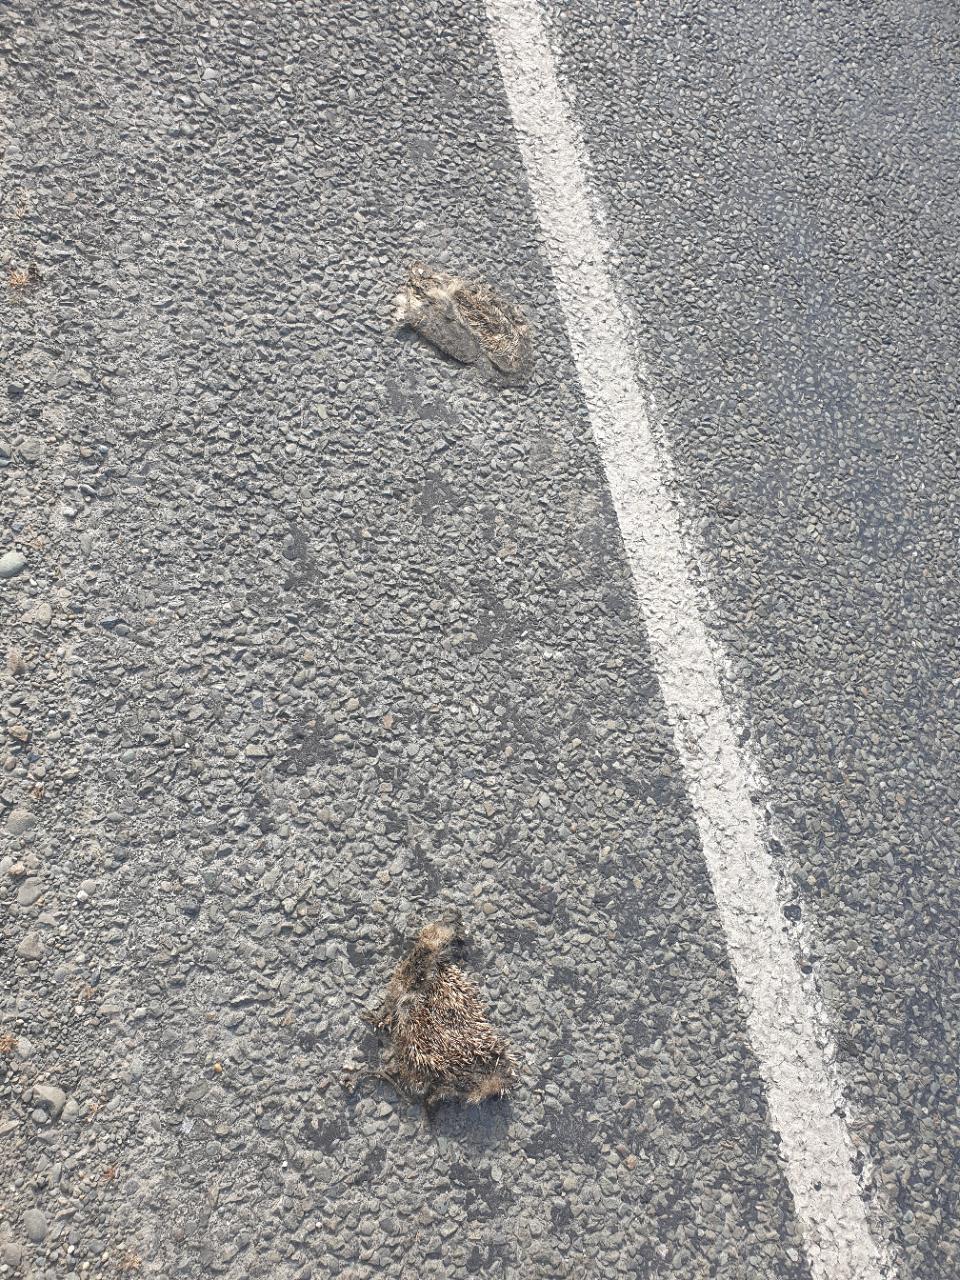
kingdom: Animalia
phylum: Chordata
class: Mammalia
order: Erinaceomorpha
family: Erinaceidae
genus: Erinaceus
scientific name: Erinaceus
